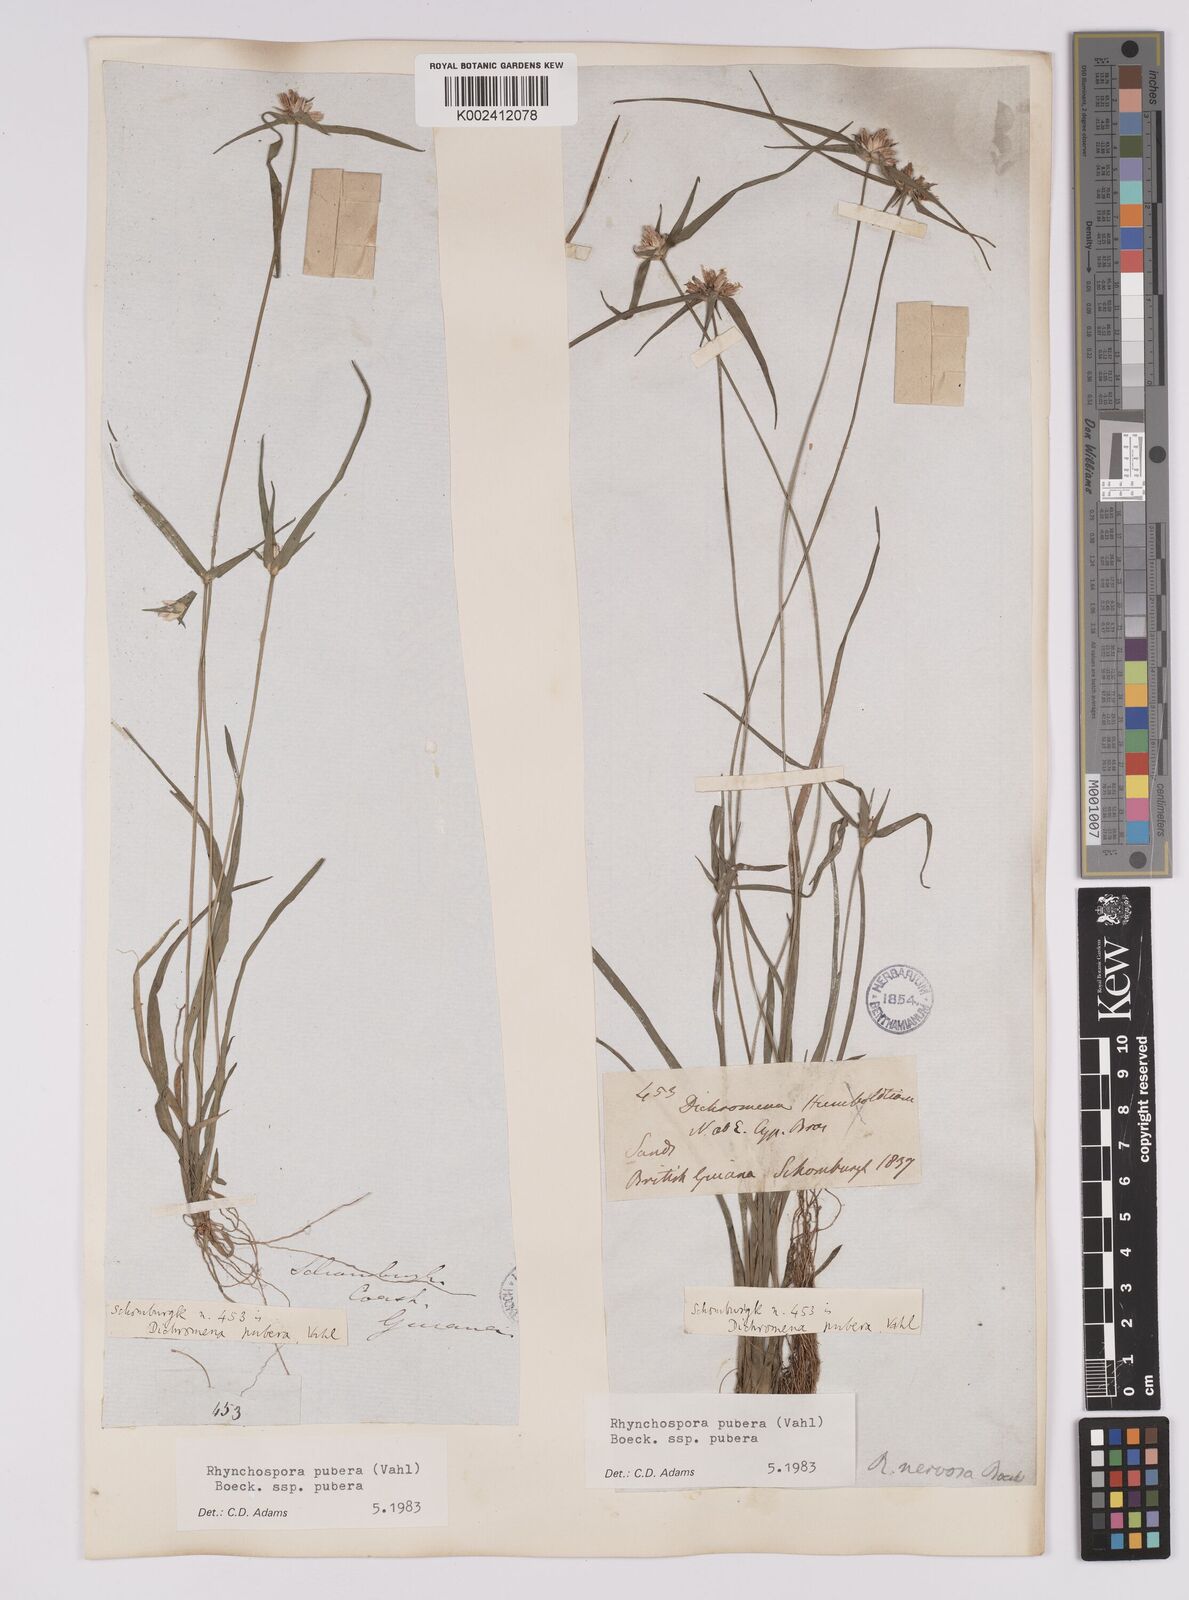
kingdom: Plantae
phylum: Tracheophyta
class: Liliopsida
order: Poales
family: Cyperaceae
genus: Rhynchospora
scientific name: Rhynchospora pubera
